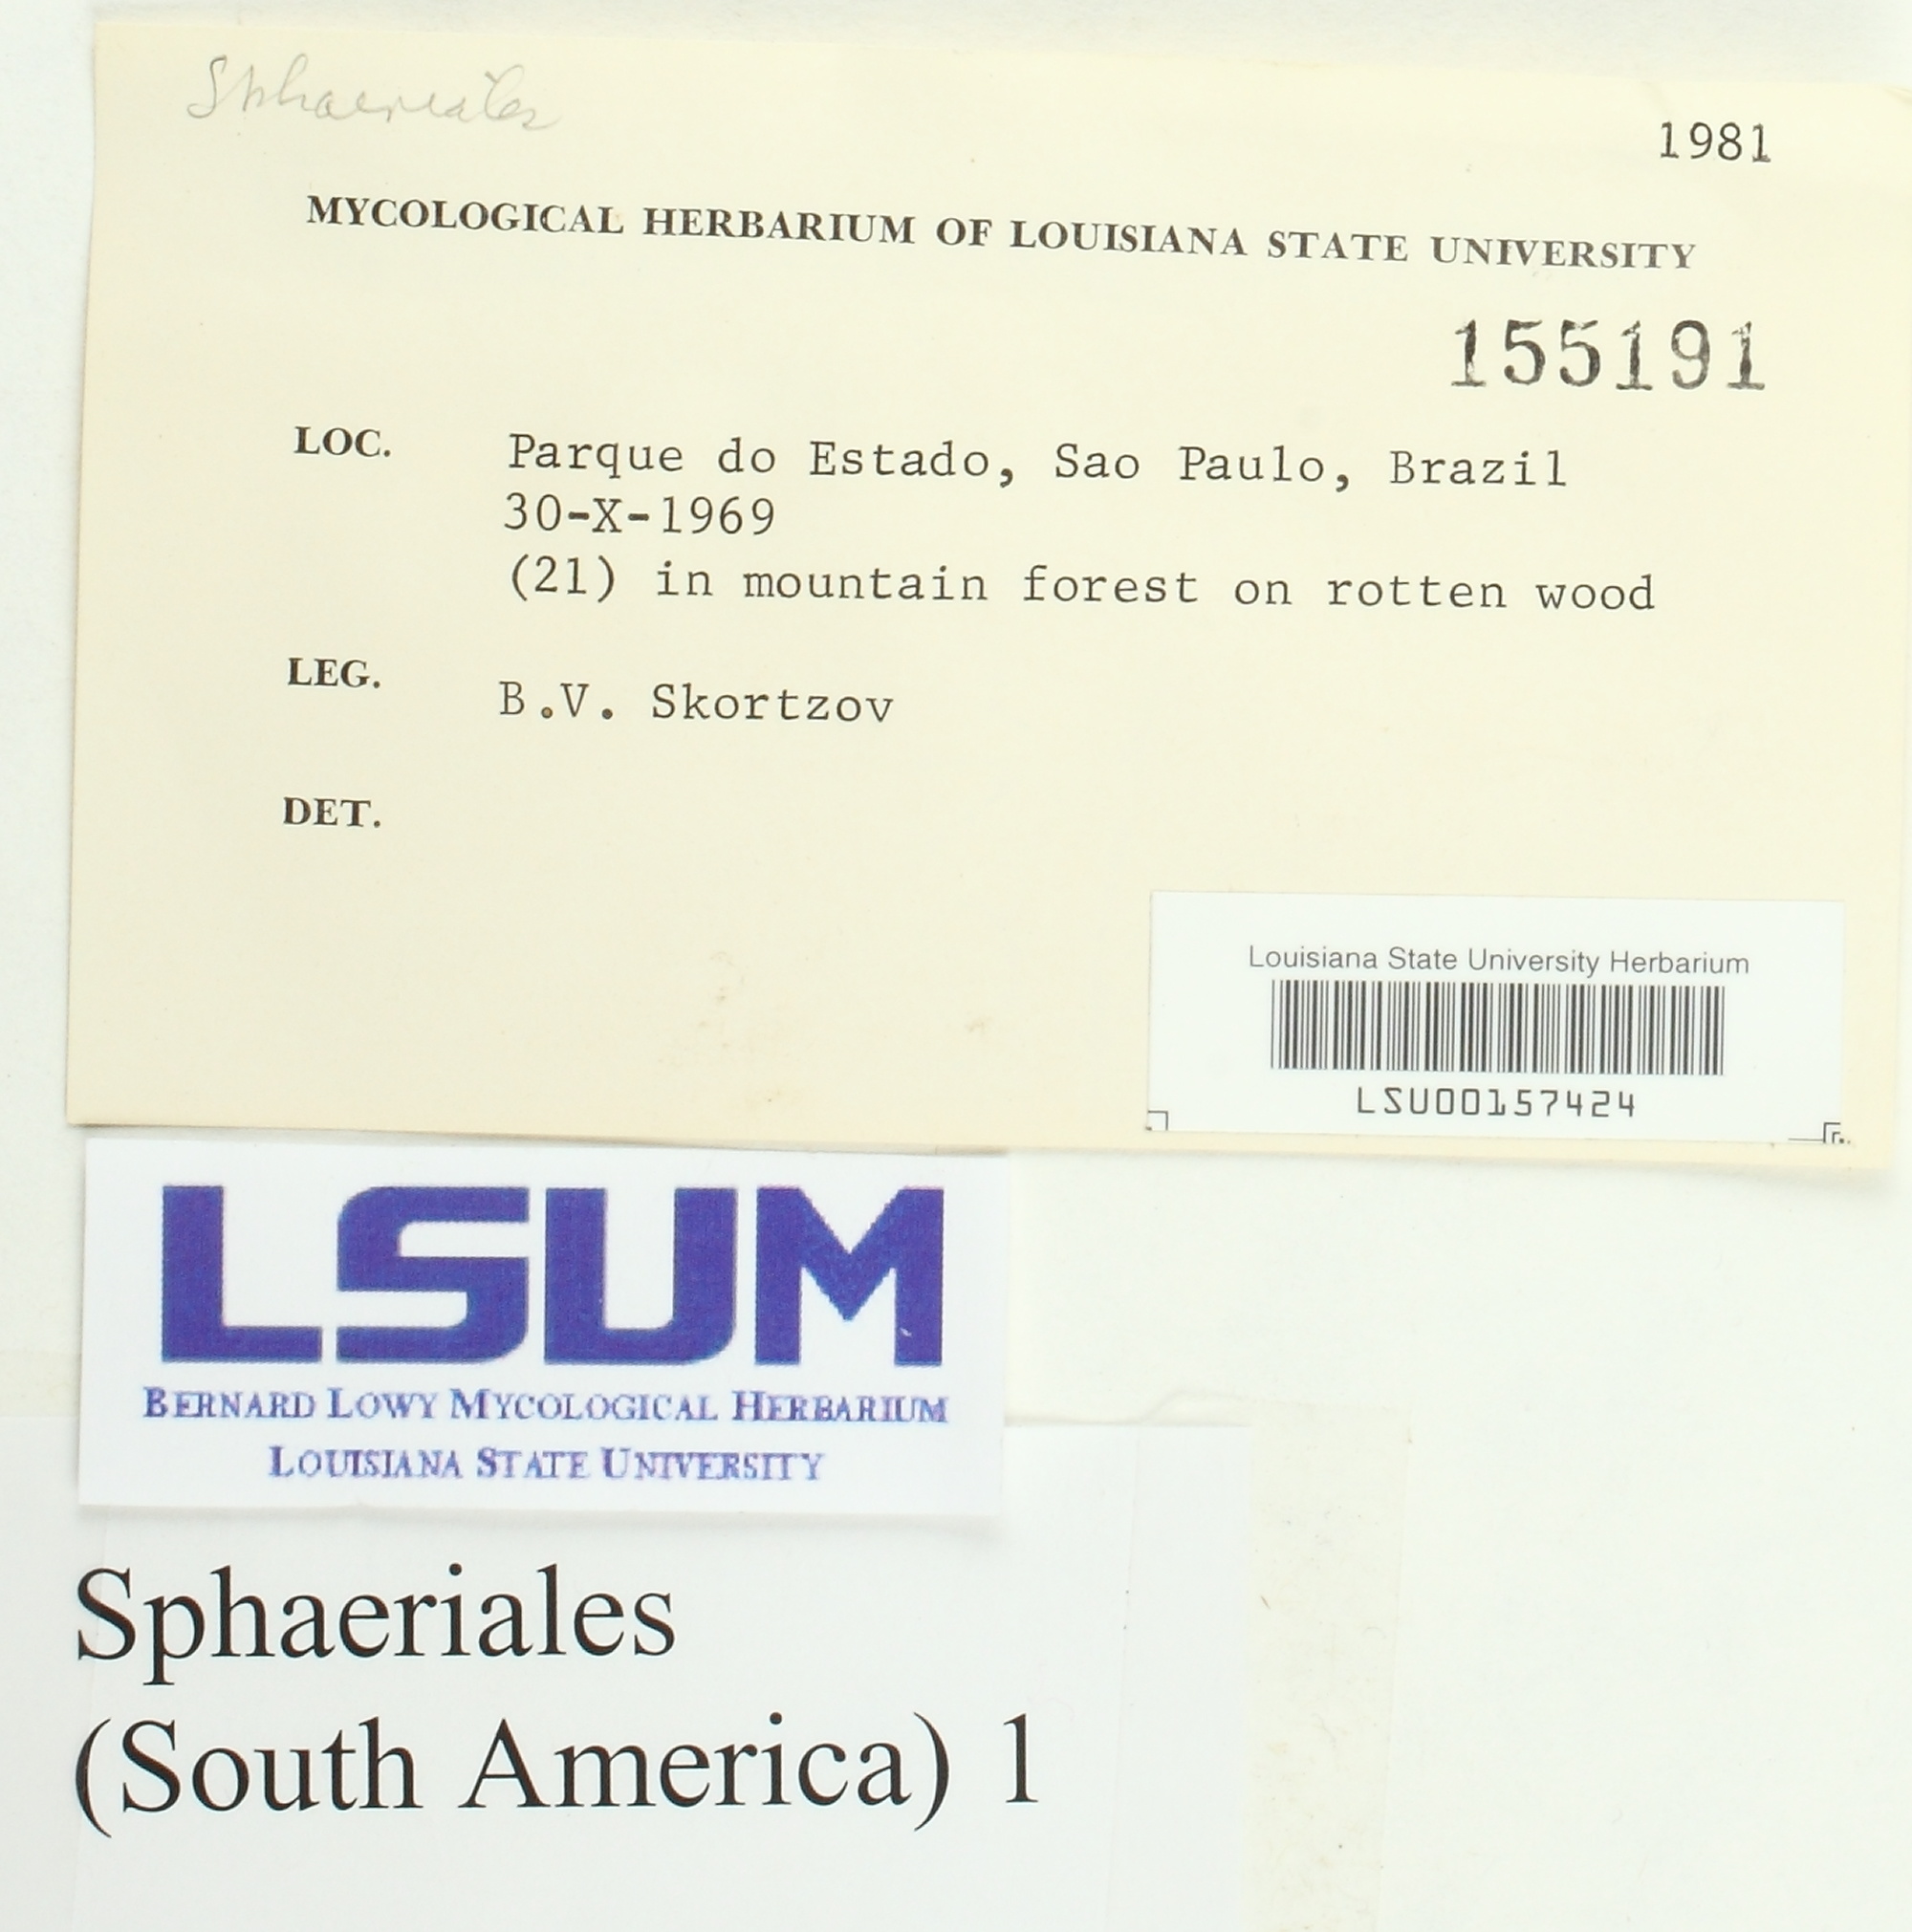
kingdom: Fungi
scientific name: Fungi
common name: Fungi
